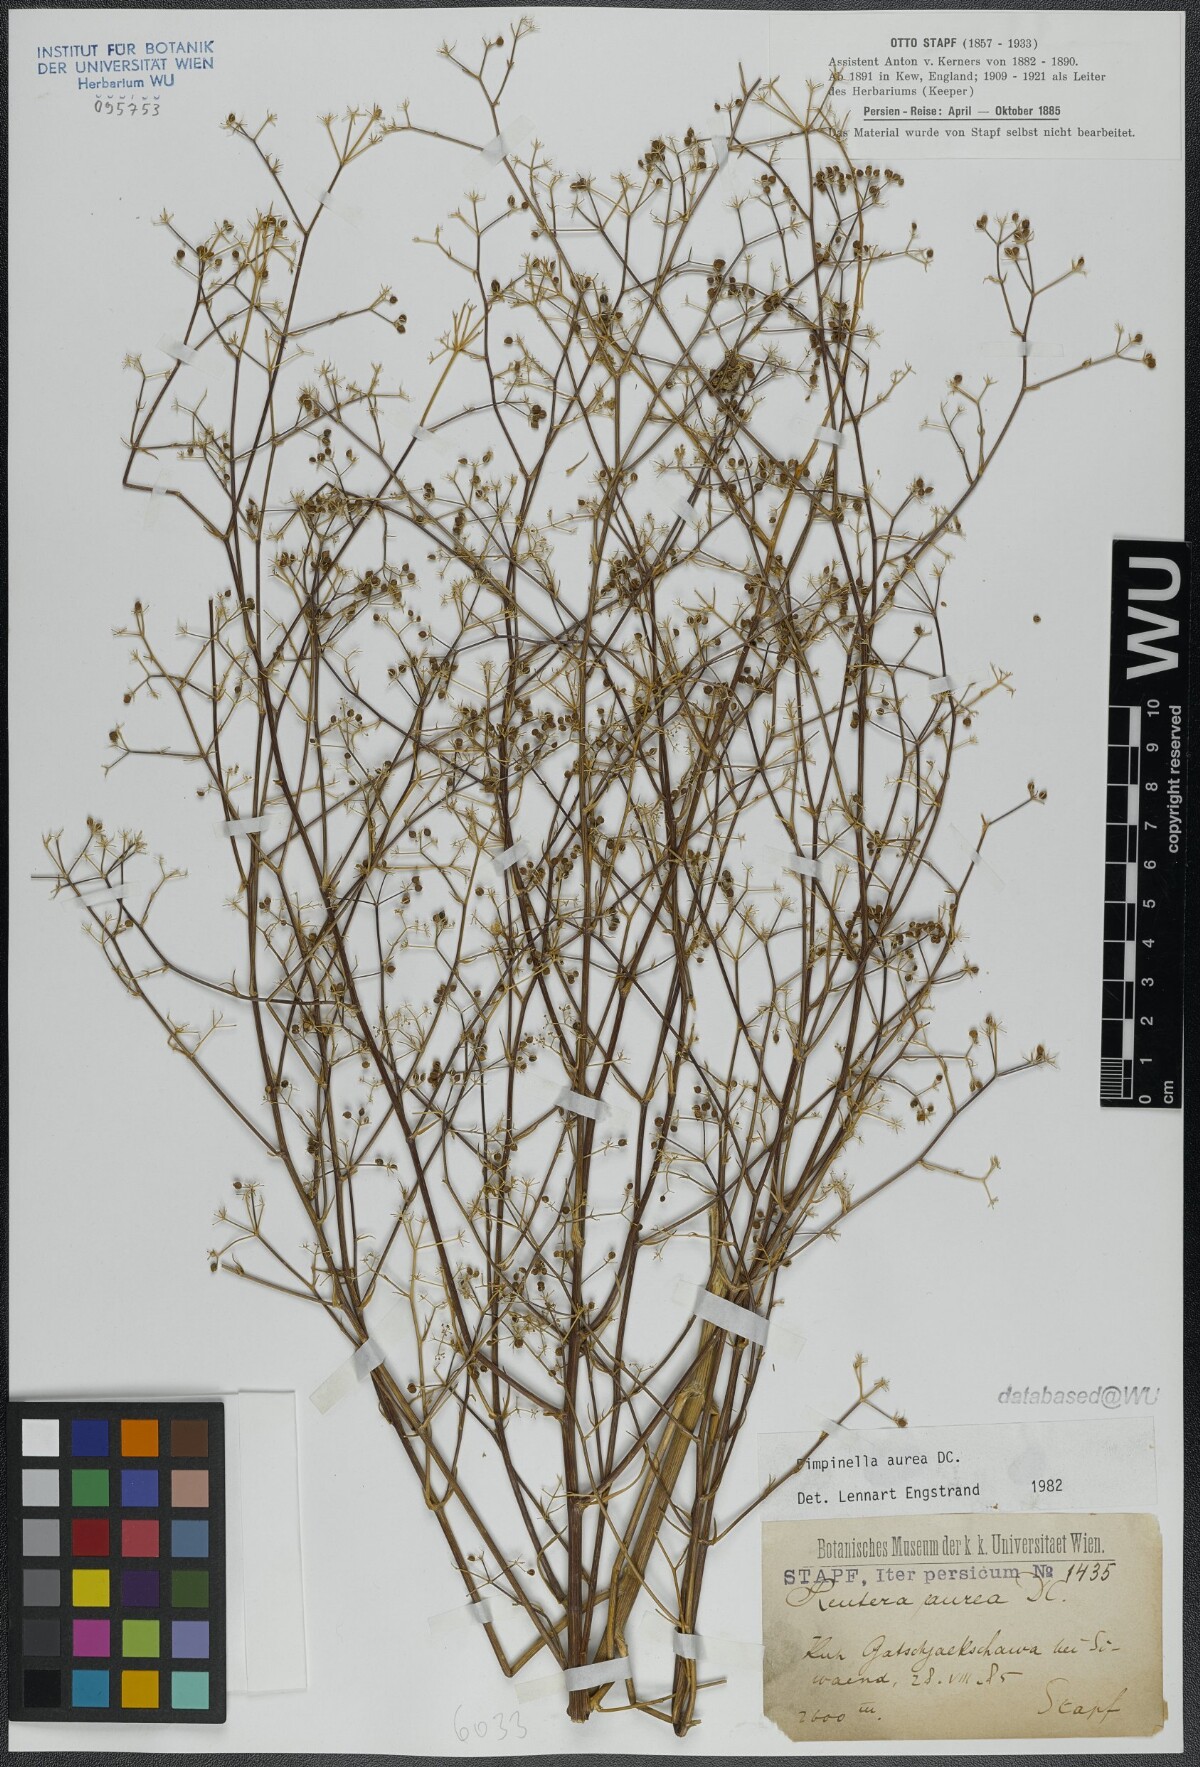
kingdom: Plantae
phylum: Tracheophyta
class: Magnoliopsida
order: Apiales
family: Apiaceae
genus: Pimpinella
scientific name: Pimpinella aurea
